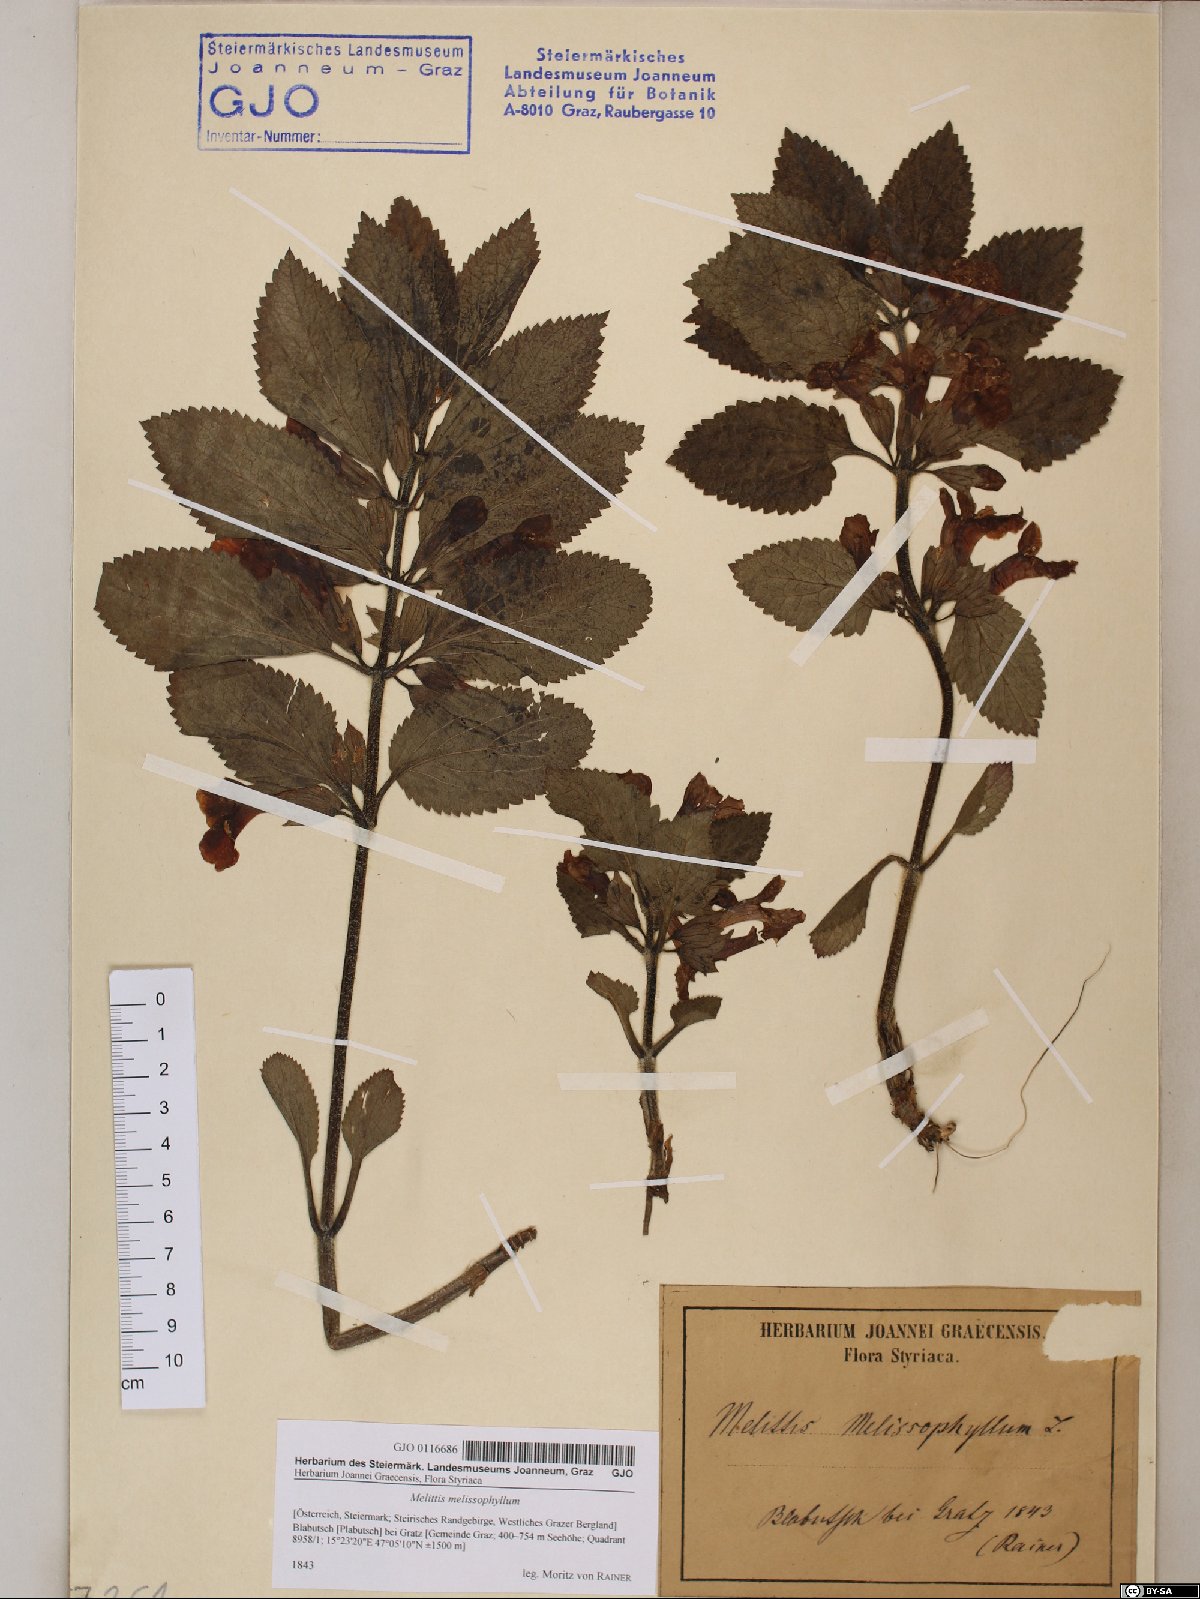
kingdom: Plantae
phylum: Tracheophyta
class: Magnoliopsida
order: Lamiales
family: Lamiaceae
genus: Melittis
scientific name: Melittis melissophyllum
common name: Bastard balm
